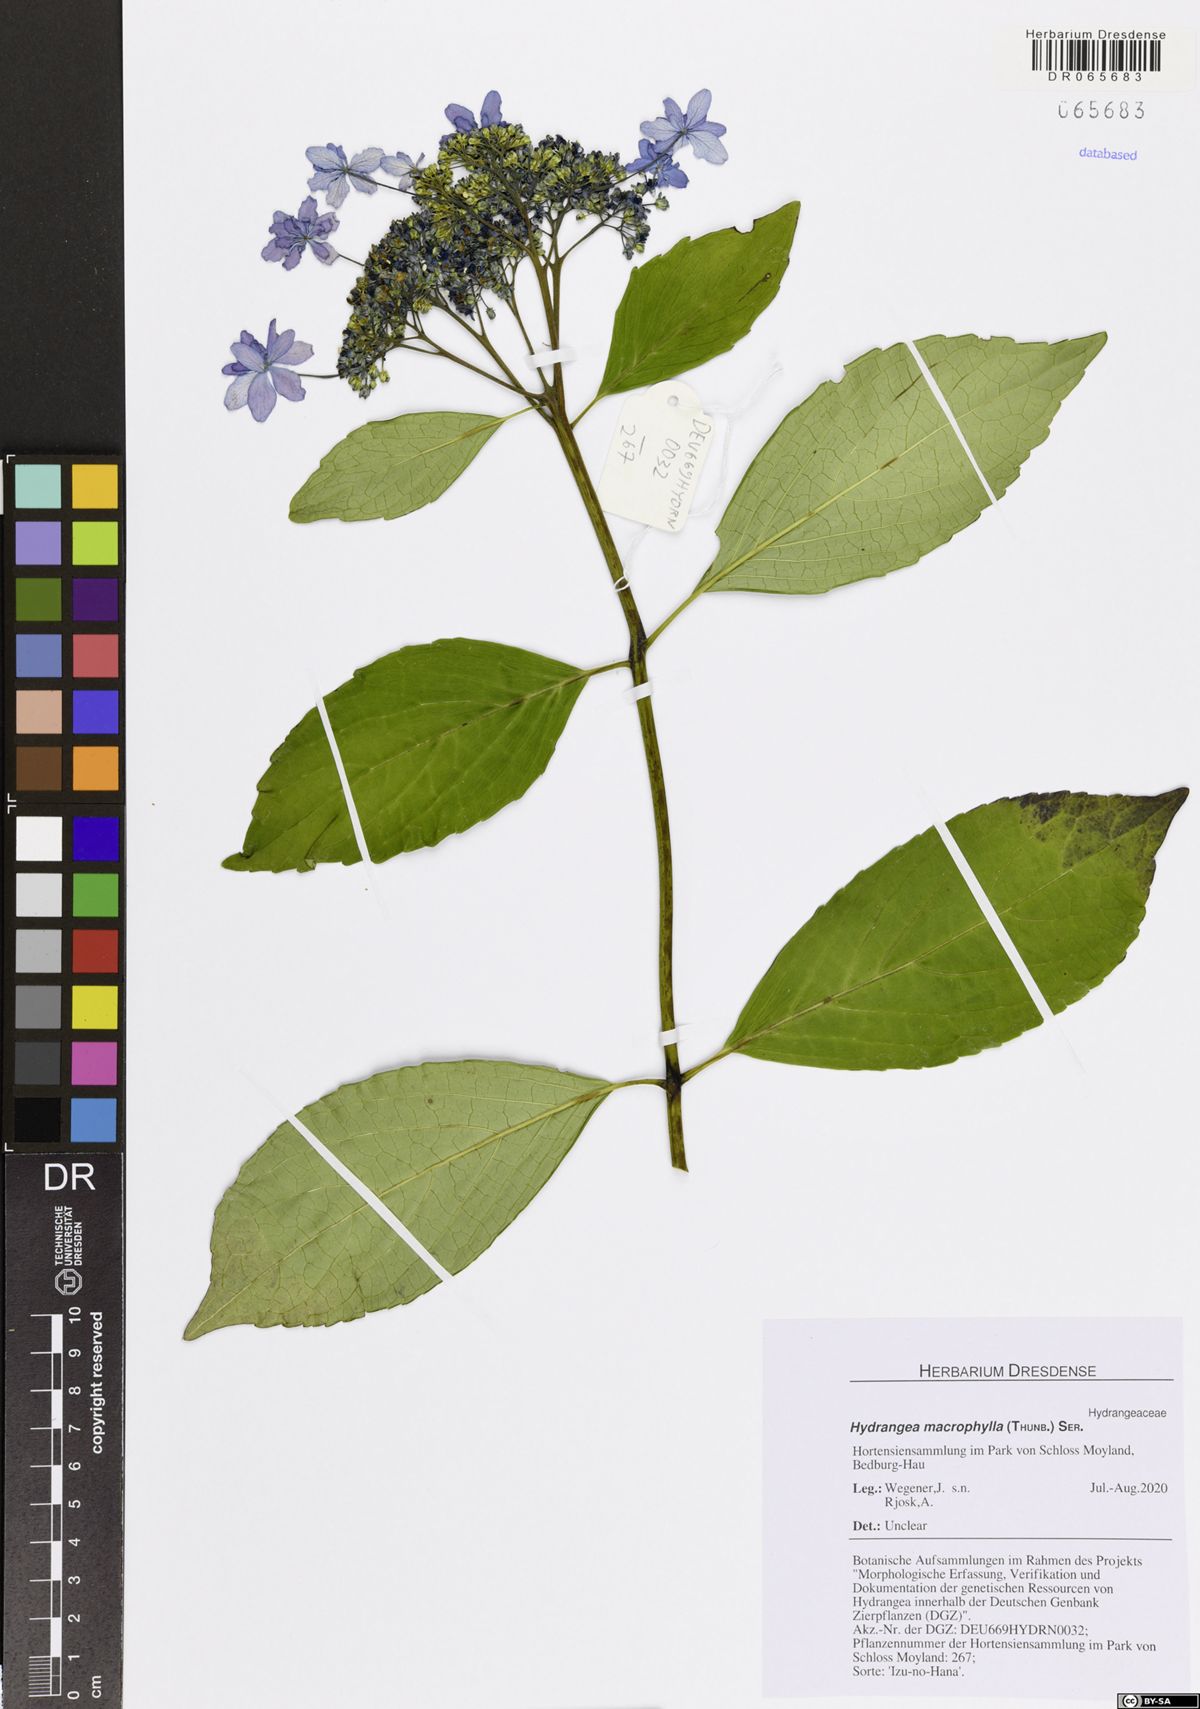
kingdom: Plantae
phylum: Tracheophyta
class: Magnoliopsida
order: Cornales
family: Hydrangeaceae
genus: Hydrangea
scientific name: Hydrangea macrophylla
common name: Hydrangea
